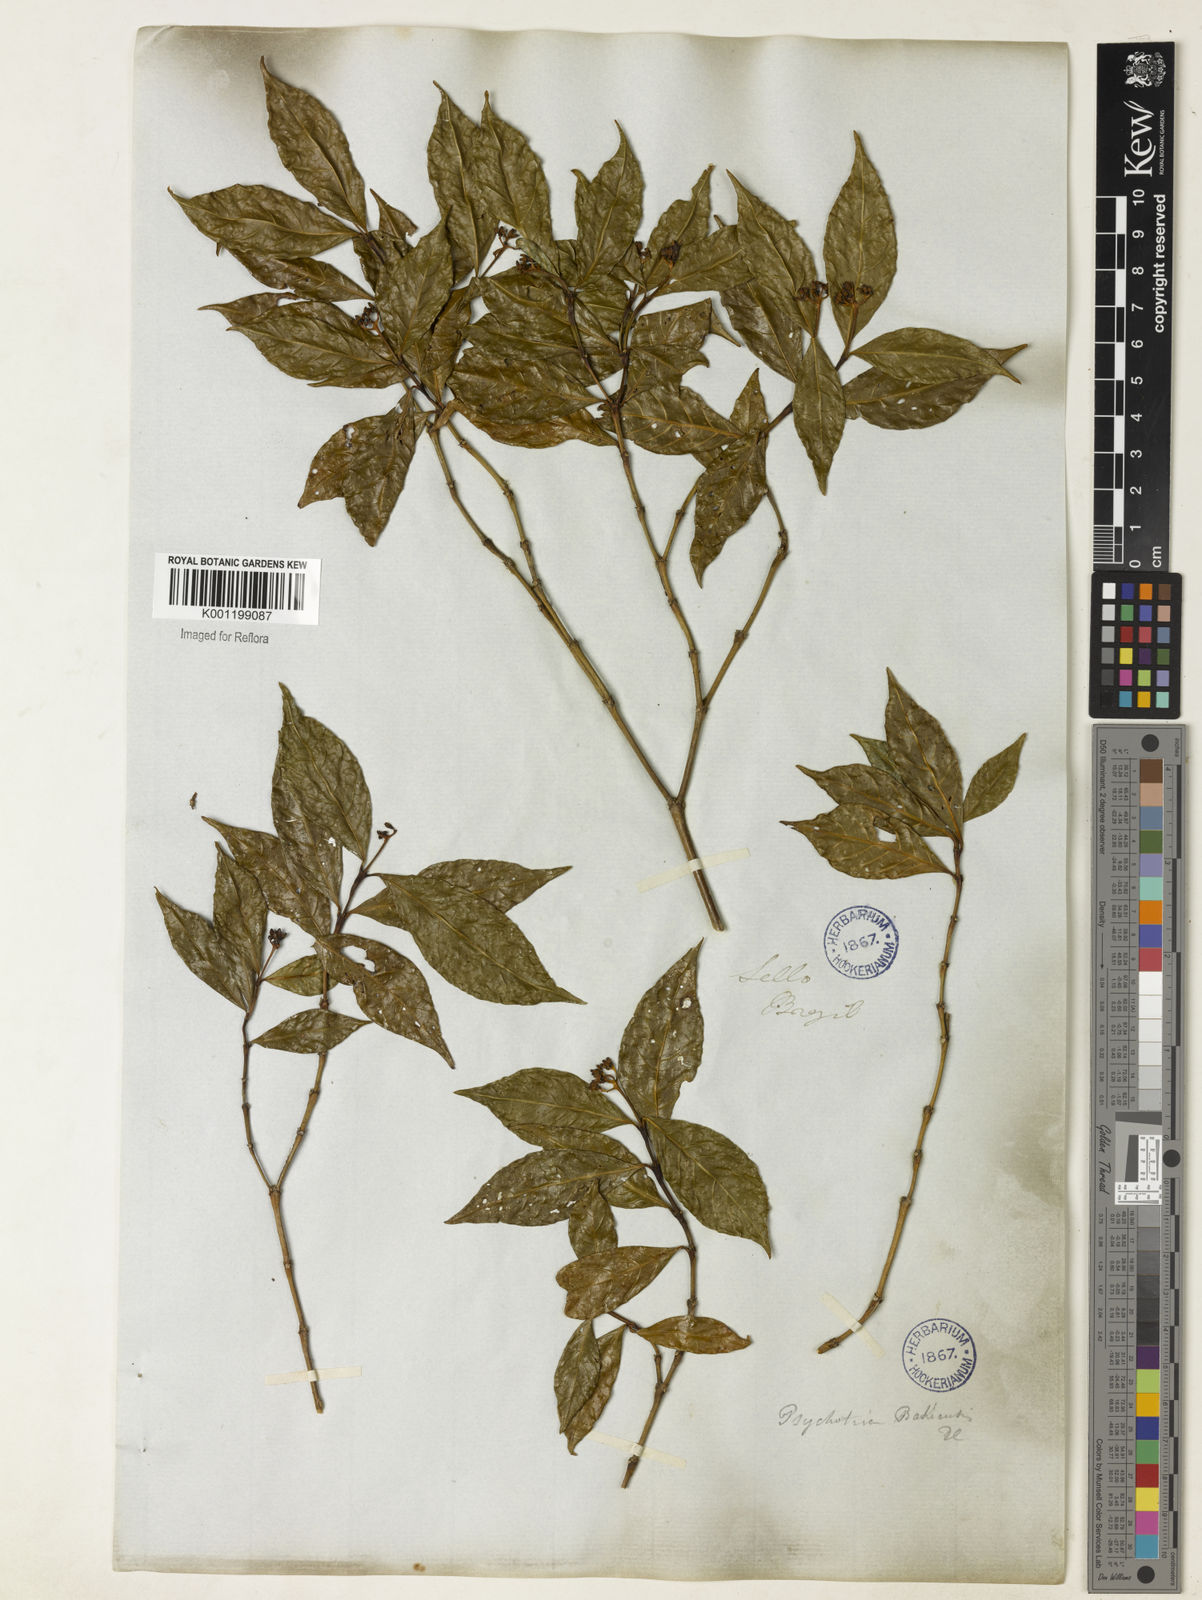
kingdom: Plantae
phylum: Tracheophyta
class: Magnoliopsida
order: Gentianales
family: Rubiaceae
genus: Palicourea
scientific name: Palicourea cuspidata
